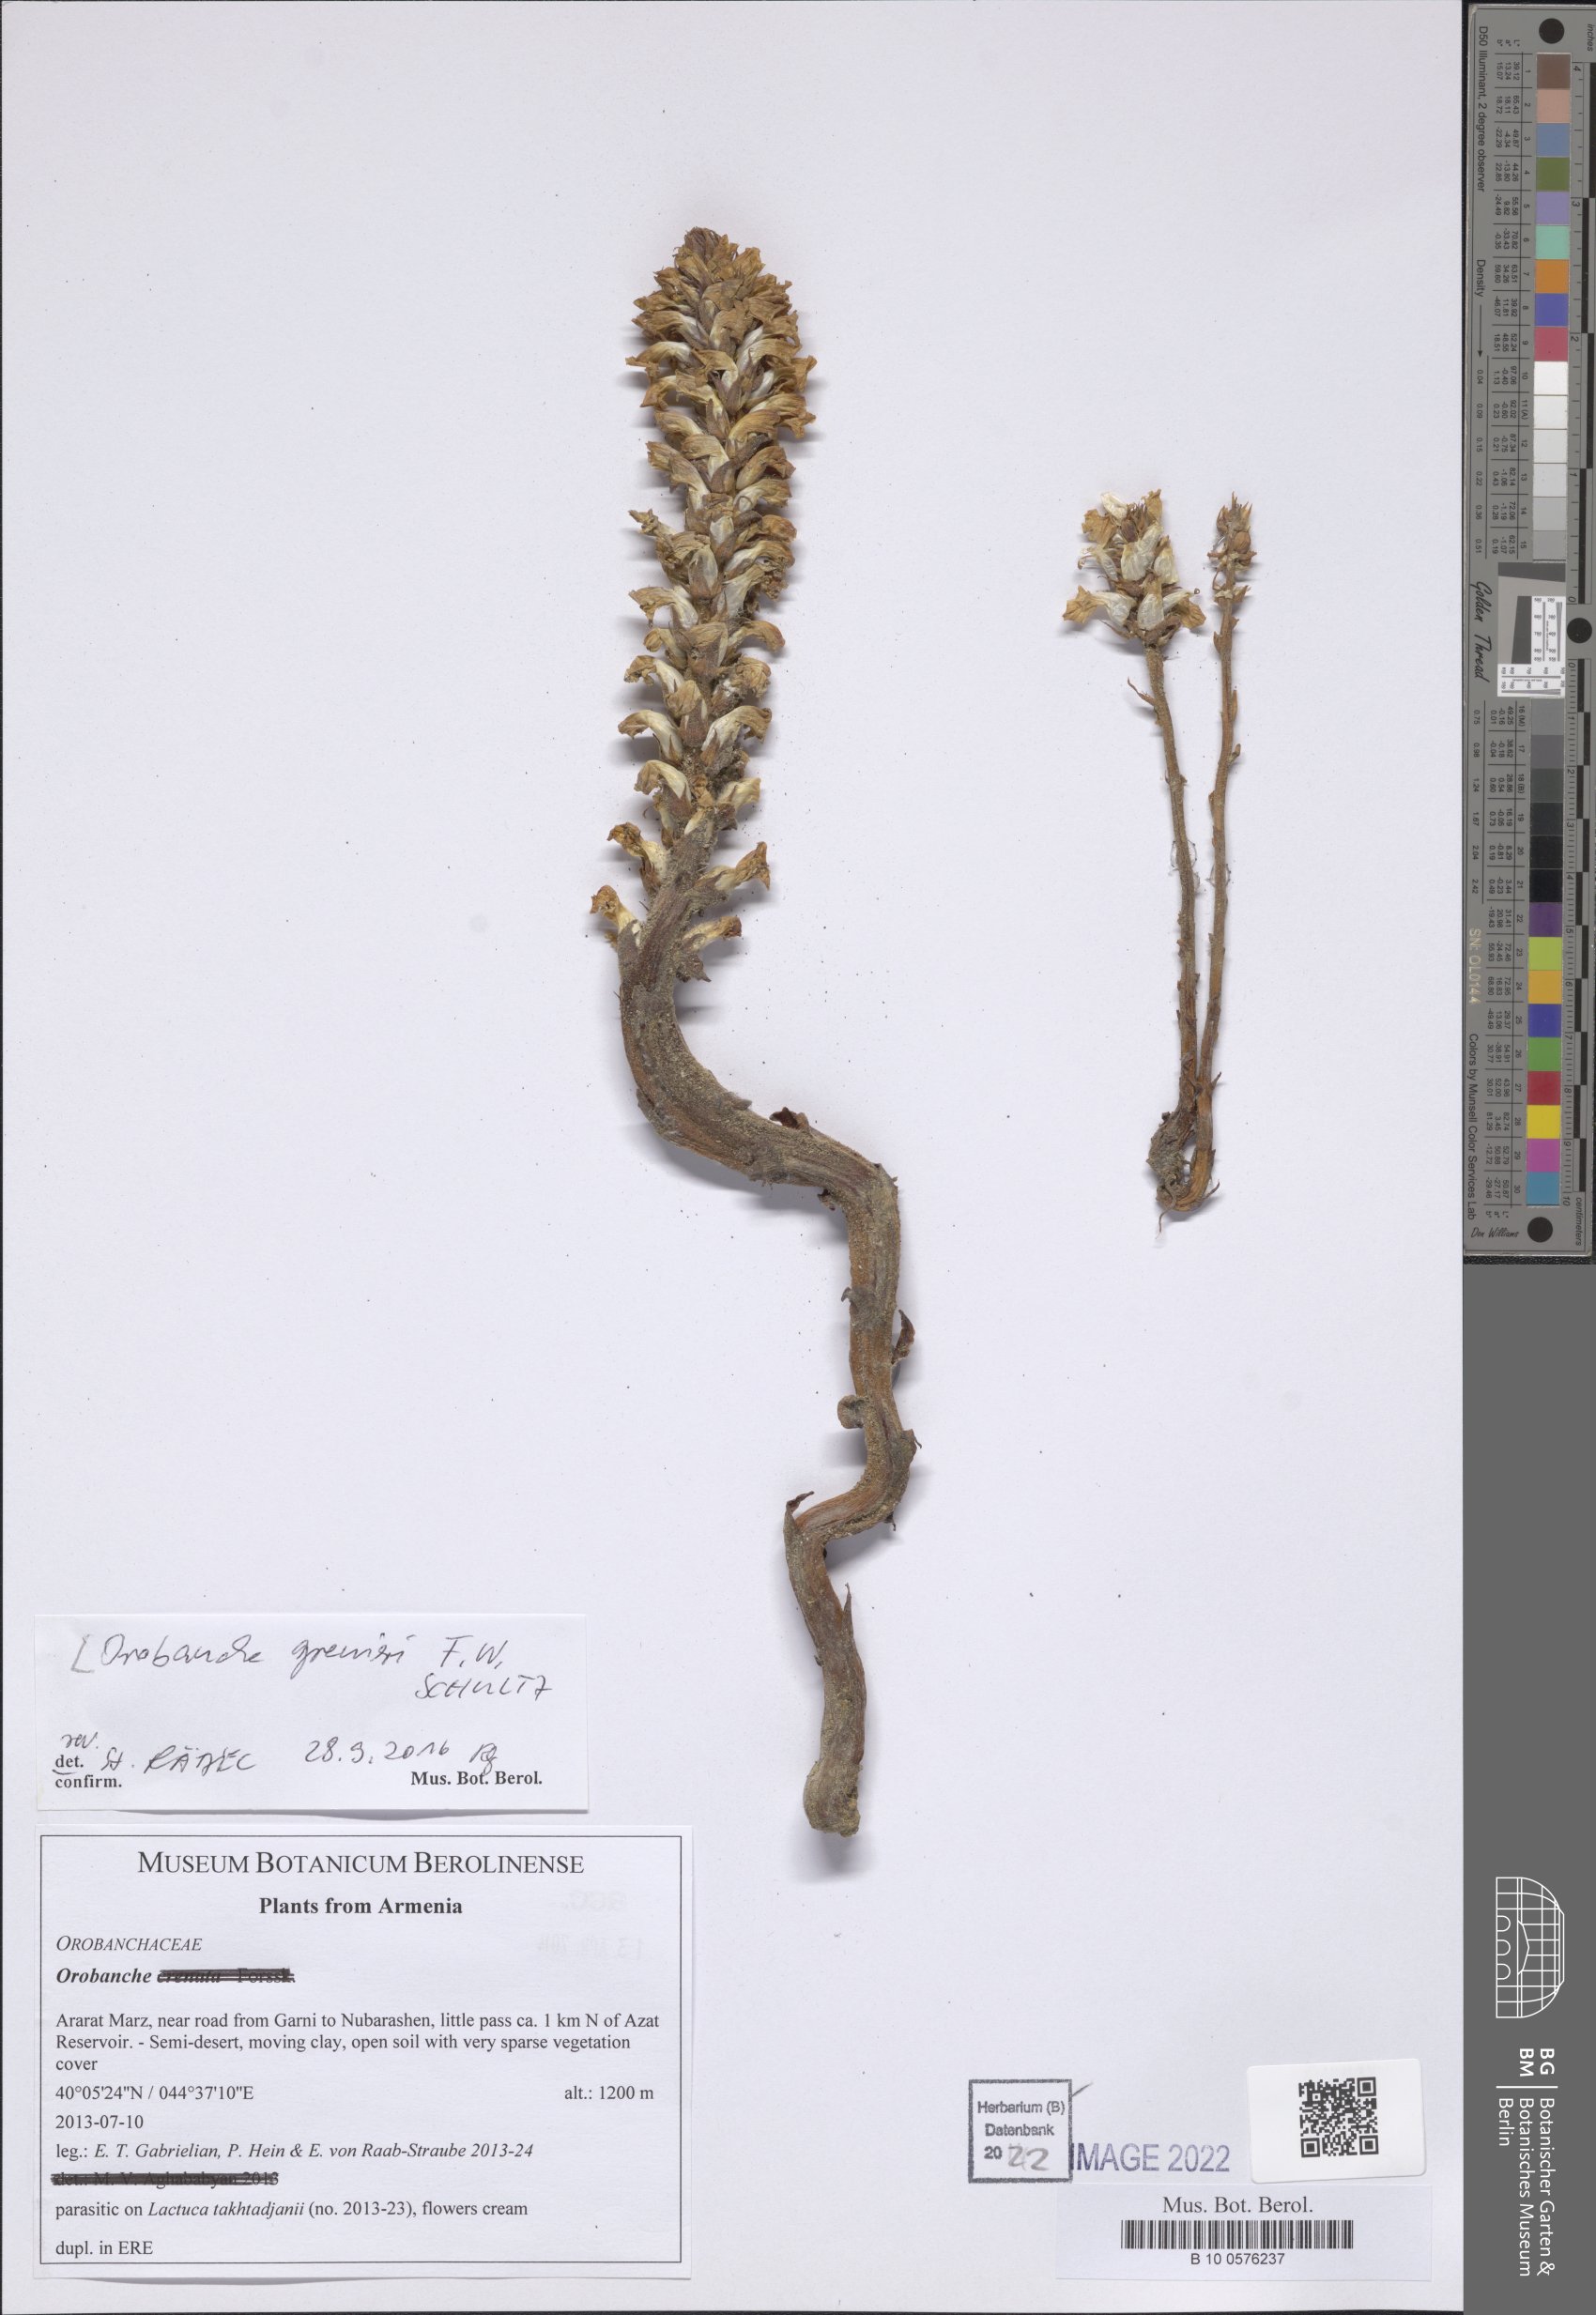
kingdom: Plantae
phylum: Tracheophyta
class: Magnoliopsida
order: Lamiales
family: Orobanchaceae
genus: Orobanche
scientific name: Orobanche grenieri
